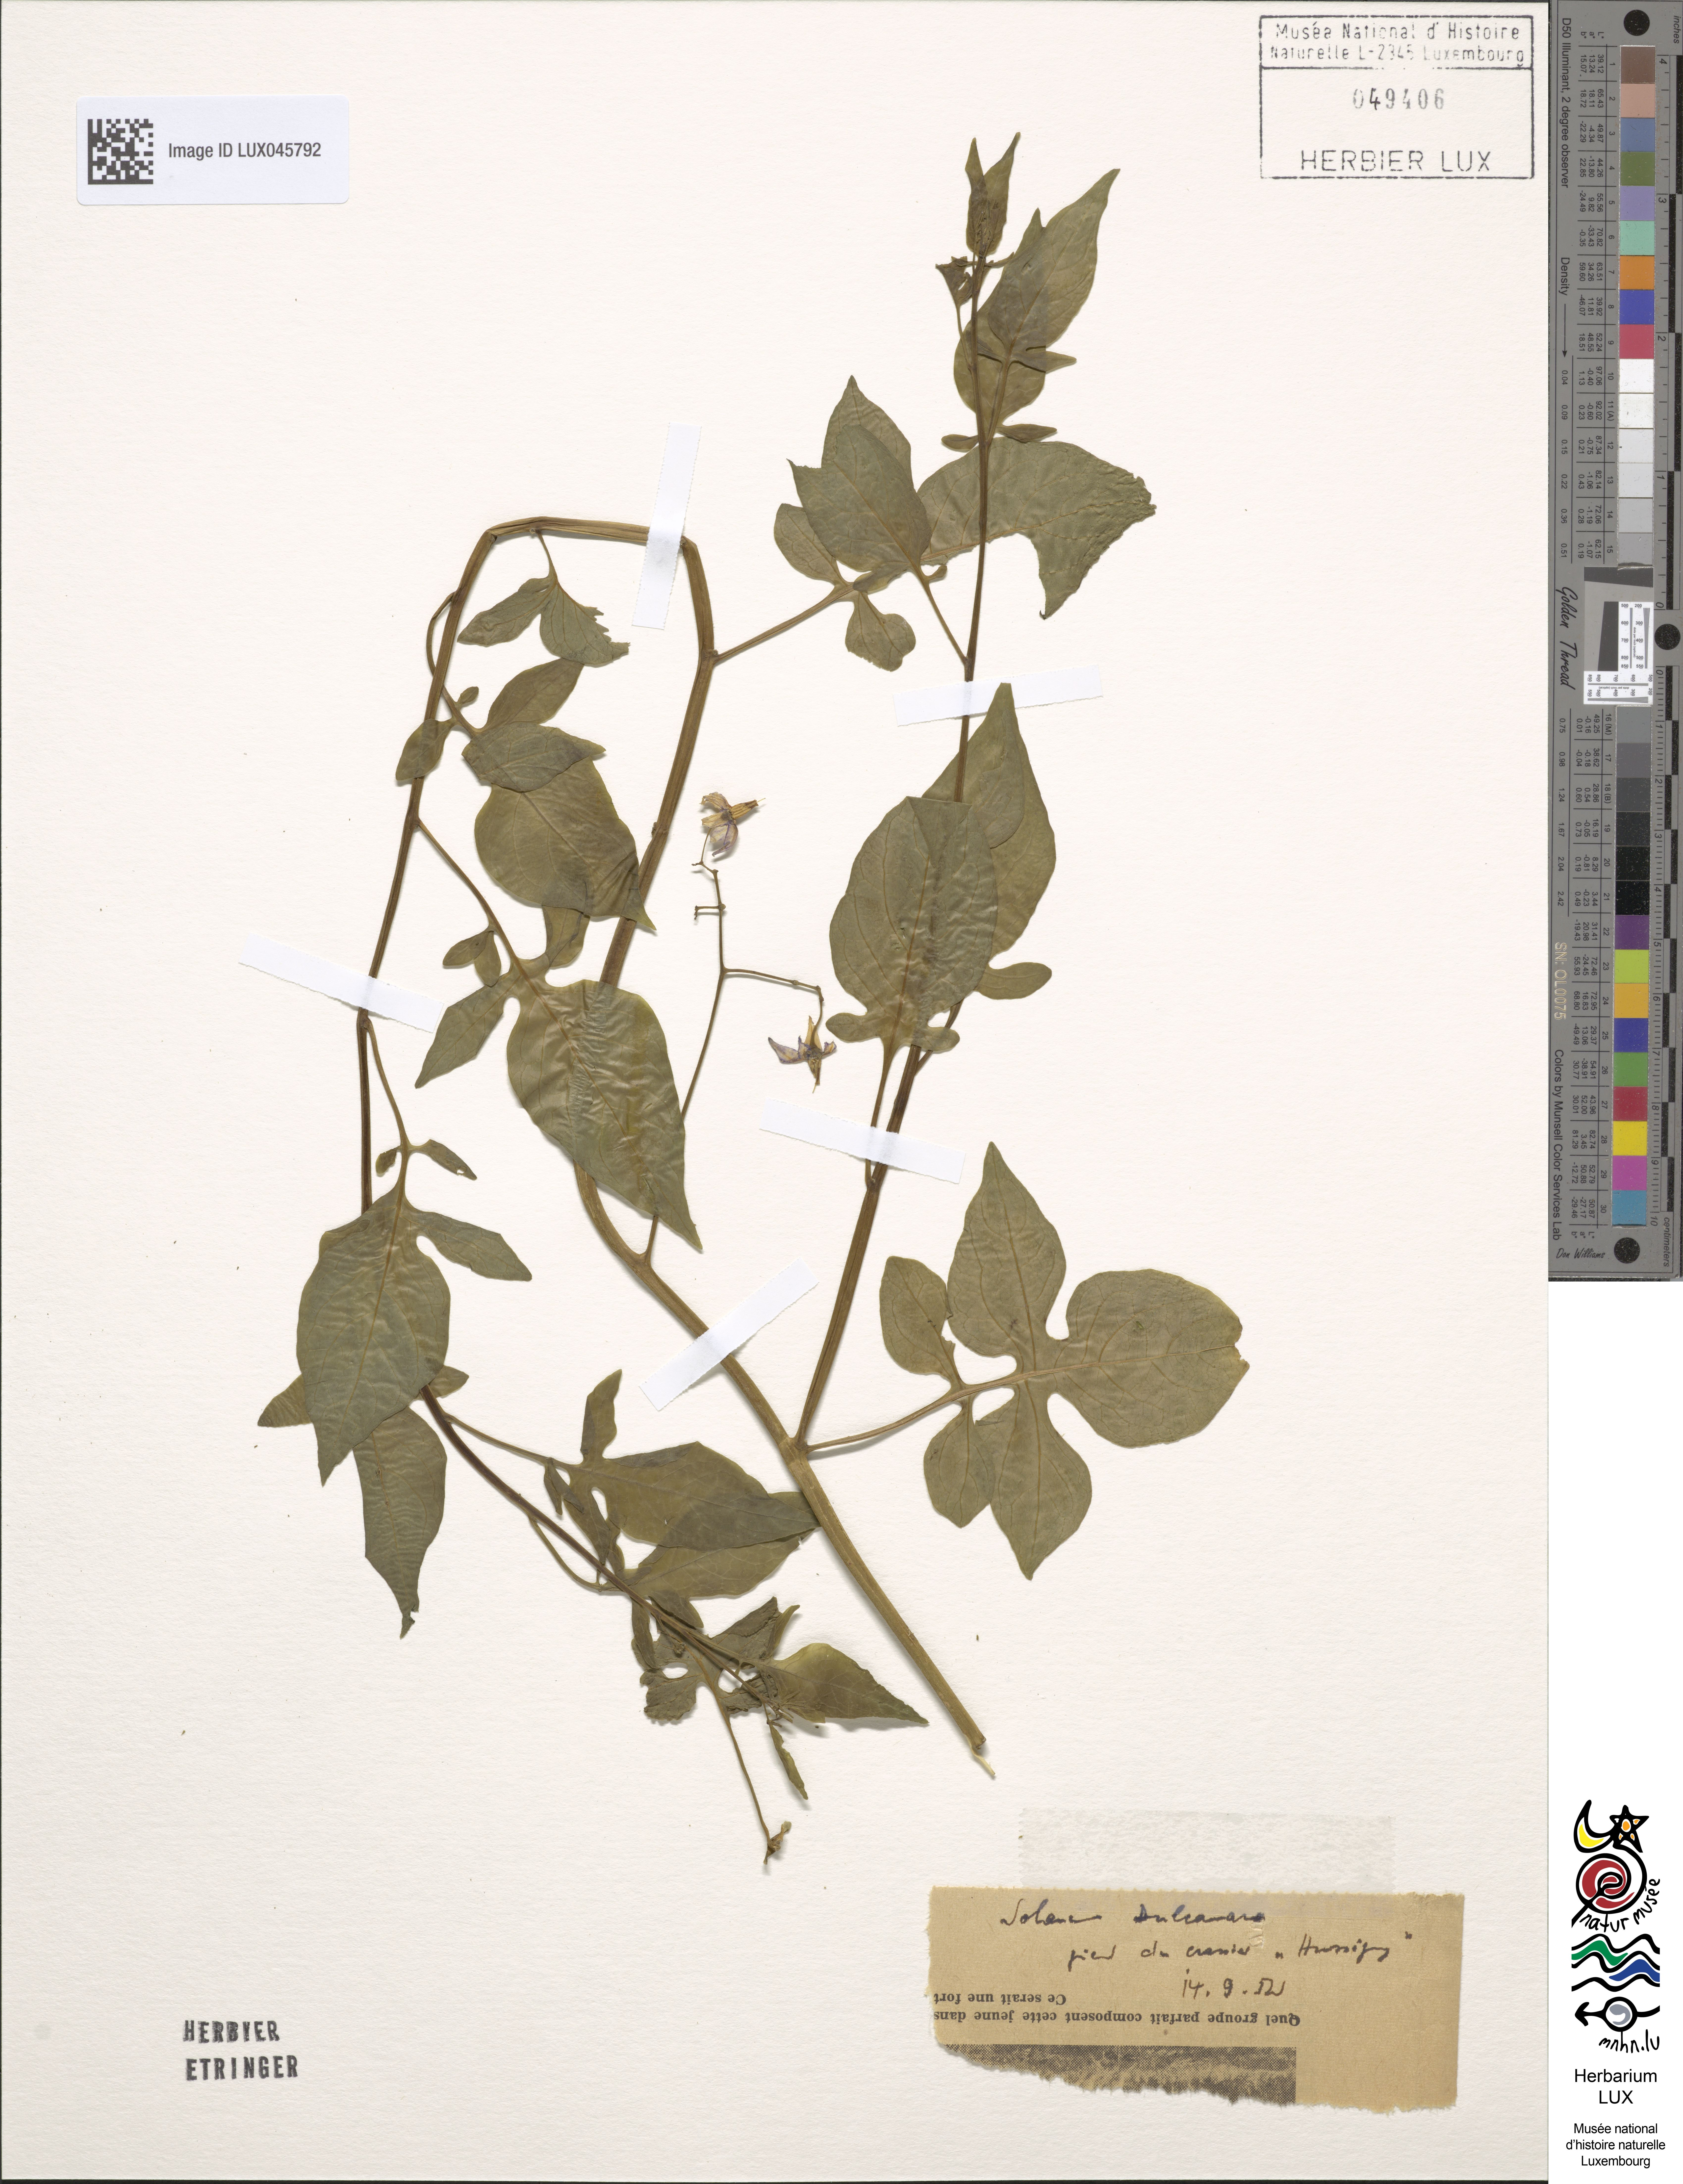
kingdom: Plantae
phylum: Tracheophyta
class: Magnoliopsida
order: Solanales
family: Solanaceae
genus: Solanum
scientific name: Solanum dulcamara
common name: Climbing nightshade
